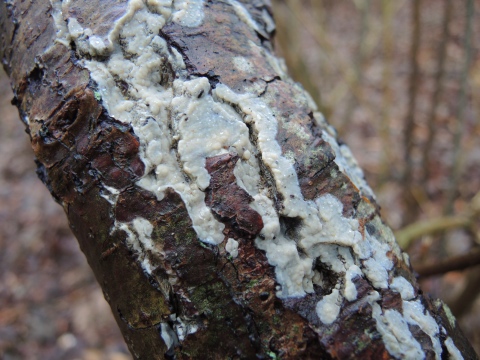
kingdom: Fungi
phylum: Basidiomycota
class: Agaricomycetes
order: Agaricales
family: Radulomycetaceae
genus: Radulomyces
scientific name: Radulomyces confluens
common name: glat naftalinskind
